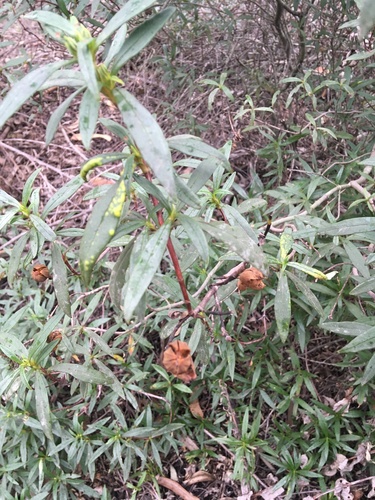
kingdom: Plantae
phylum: Tracheophyta
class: Magnoliopsida
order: Malvales
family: Cistaceae
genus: Cistus
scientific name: Cistus ladanifer
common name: Common gum cistus
